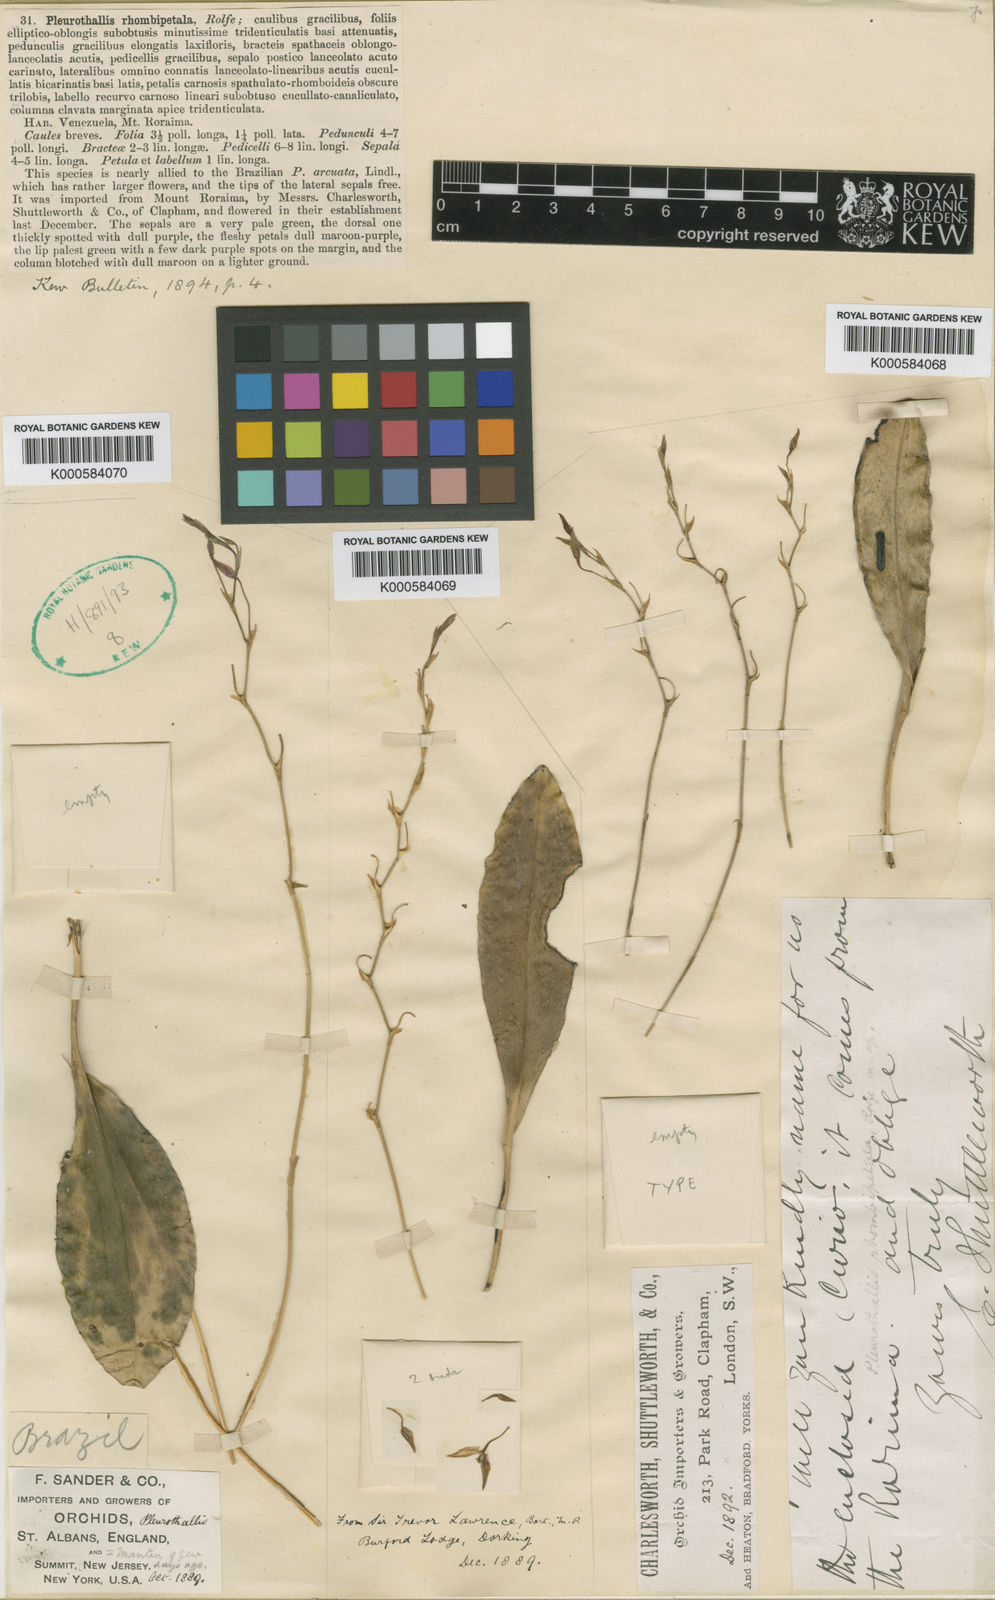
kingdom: Plantae
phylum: Tracheophyta
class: Liliopsida
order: Asparagales
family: Orchidaceae
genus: Pleurothallis
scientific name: Pleurothallis
